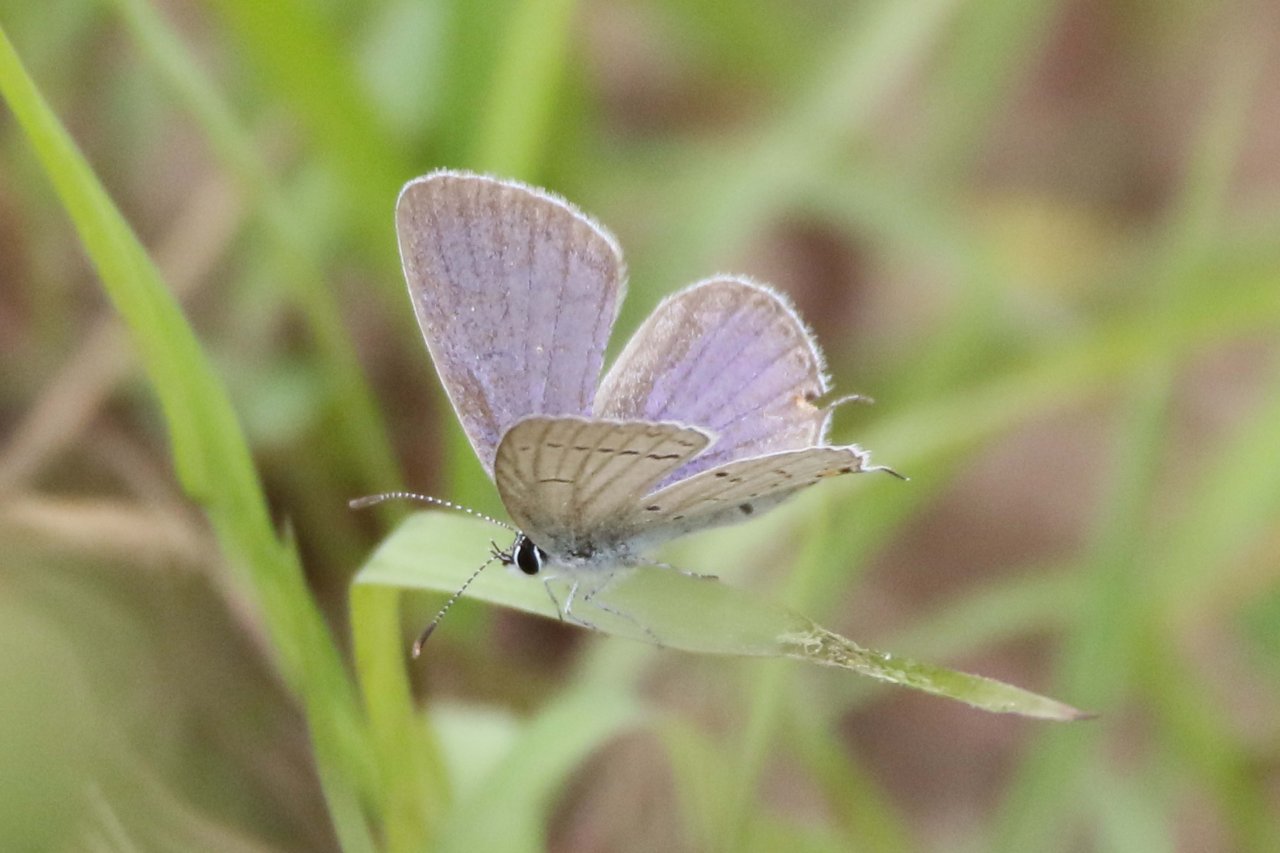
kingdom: Animalia
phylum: Arthropoda
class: Insecta
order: Lepidoptera
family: Lycaenidae
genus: Elkalyce
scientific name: Elkalyce comyntas
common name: Eastern Tailed-Blue
